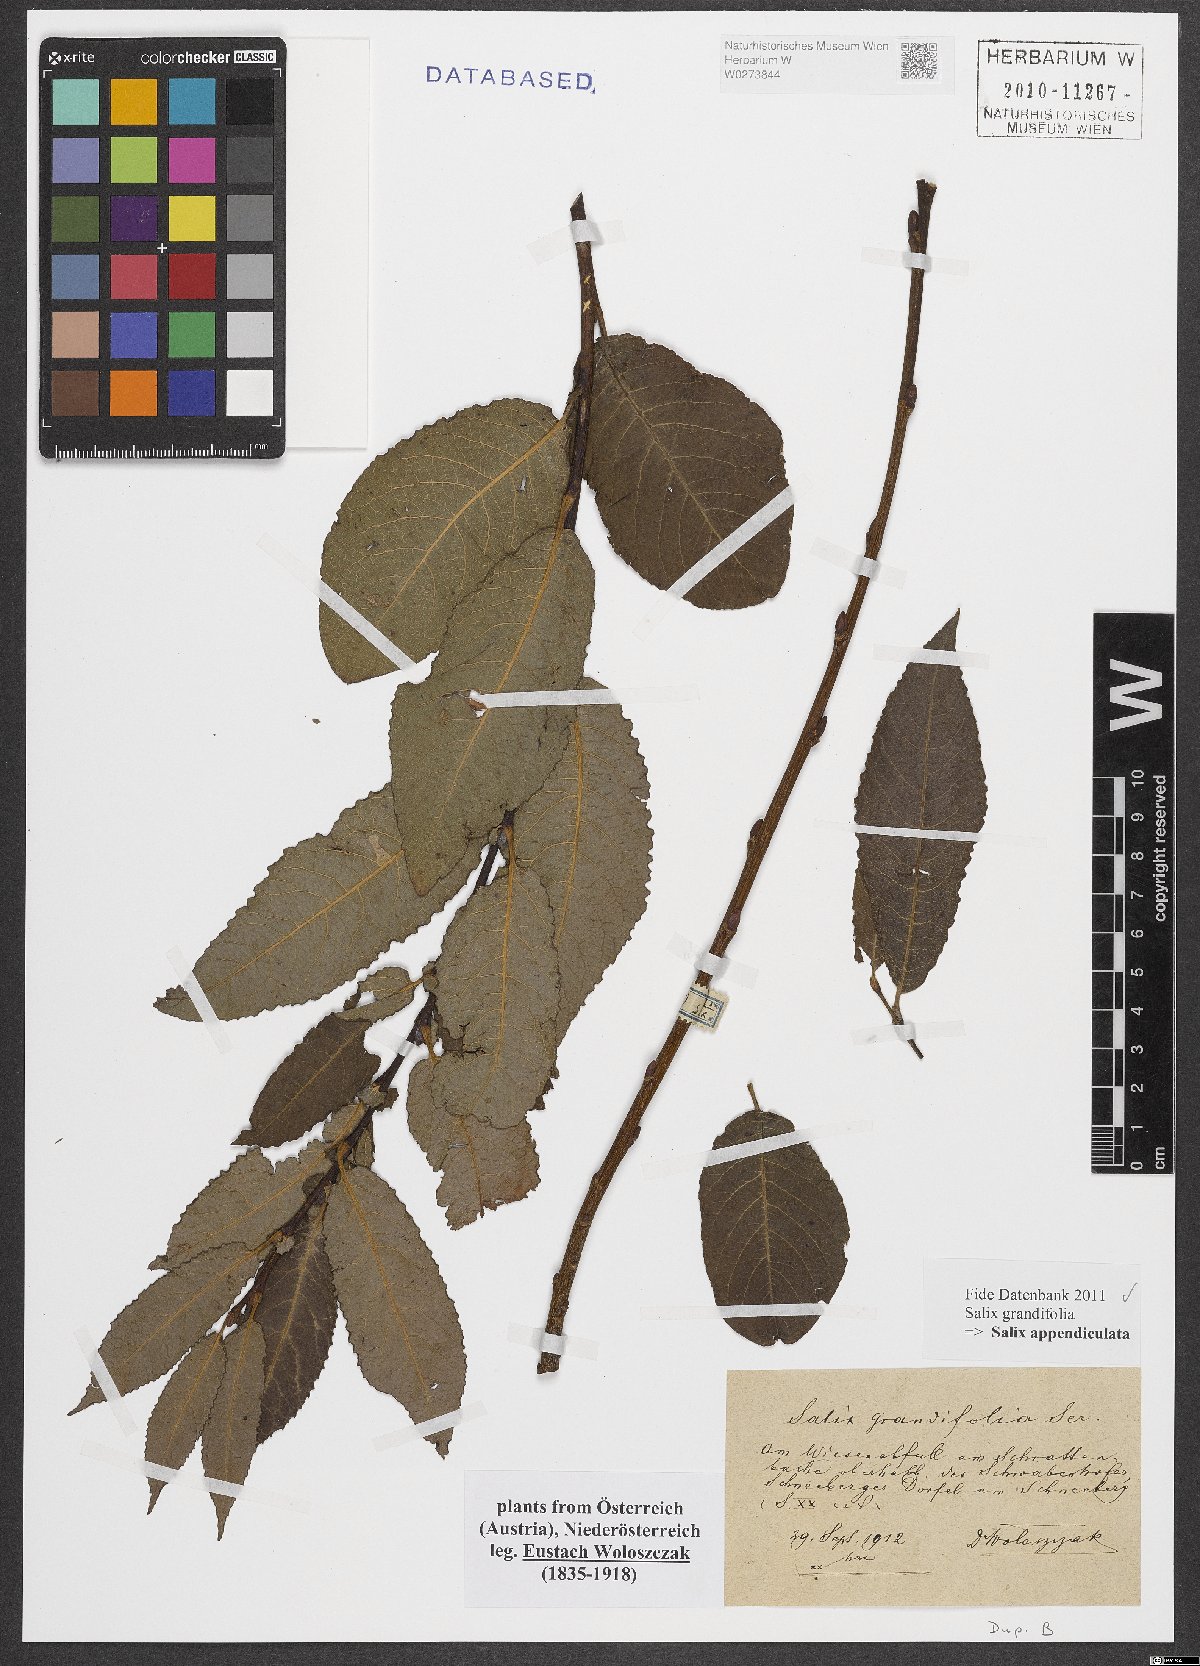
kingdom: Plantae
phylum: Tracheophyta
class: Magnoliopsida
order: Malpighiales
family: Salicaceae
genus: Salix
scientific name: Salix appendiculata
